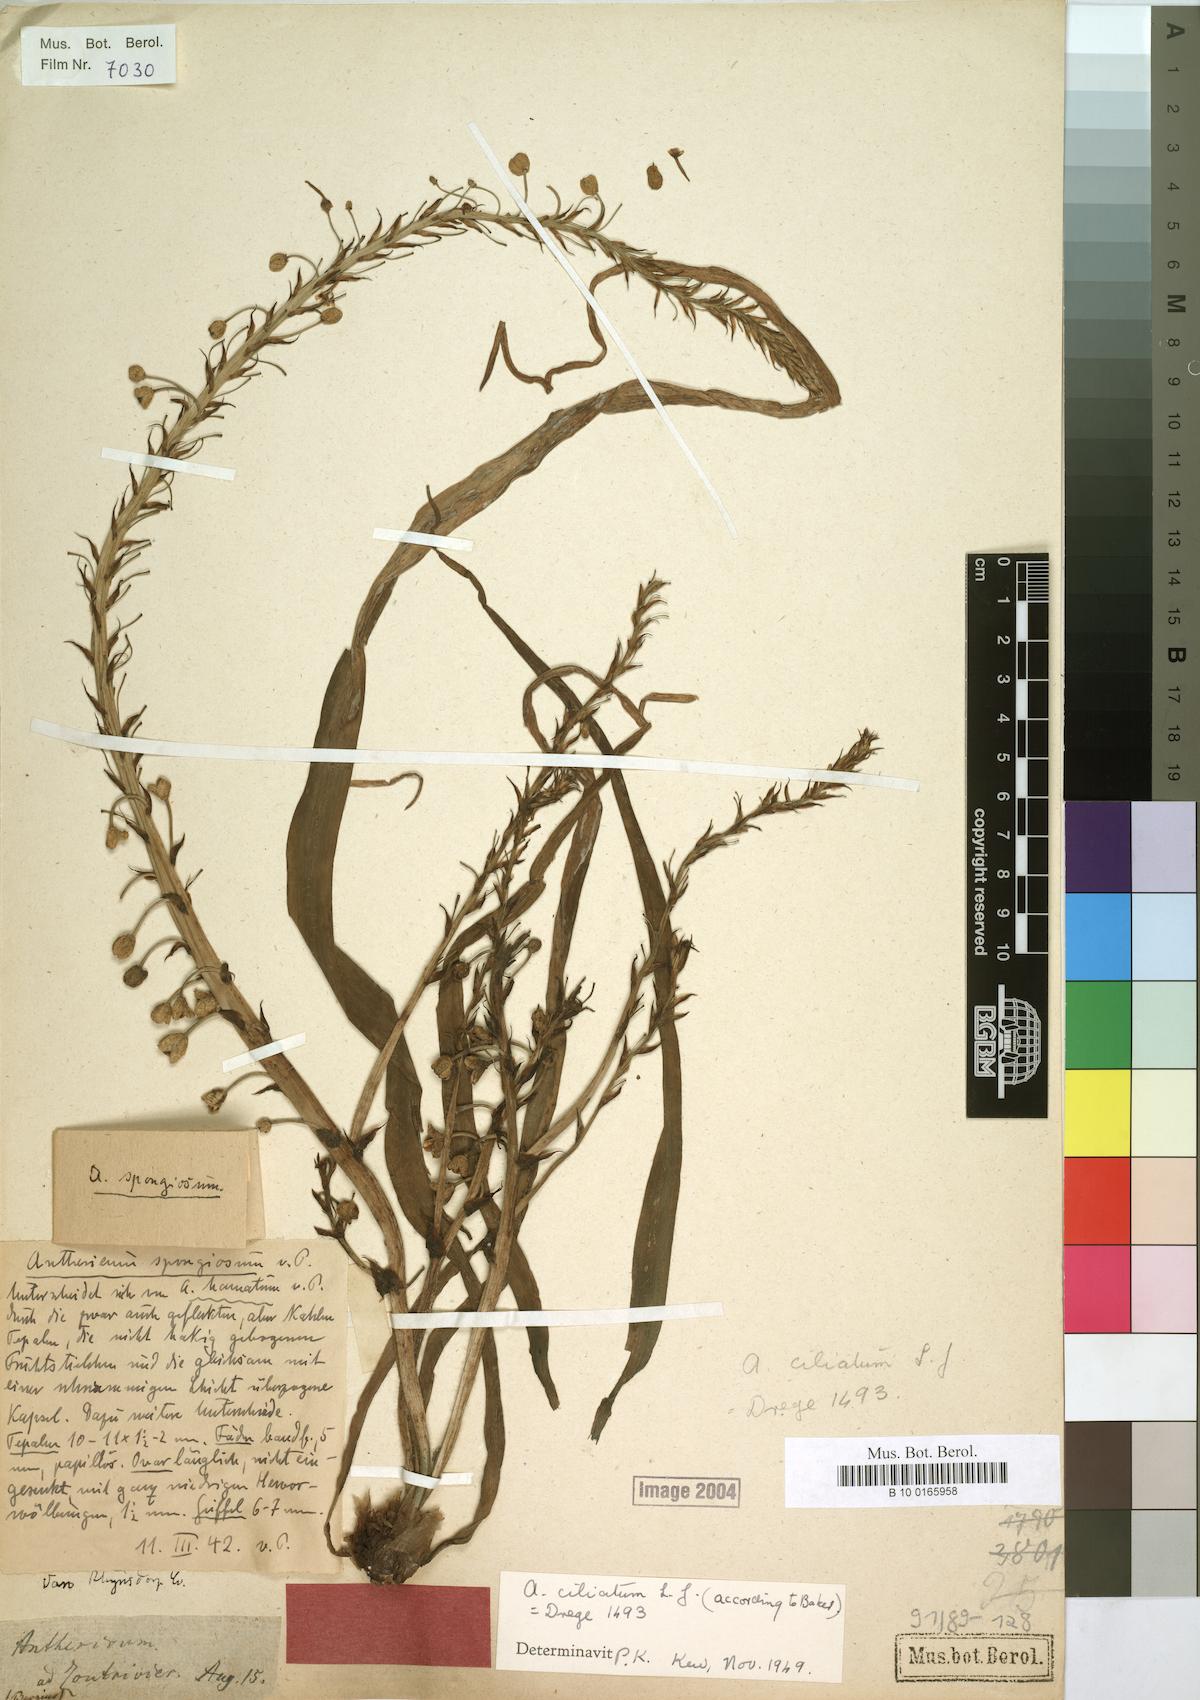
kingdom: Plantae
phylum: Tracheophyta
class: Liliopsida
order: Asparagales
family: Asphodelaceae
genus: Trachyandra
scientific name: Trachyandra ciliata
